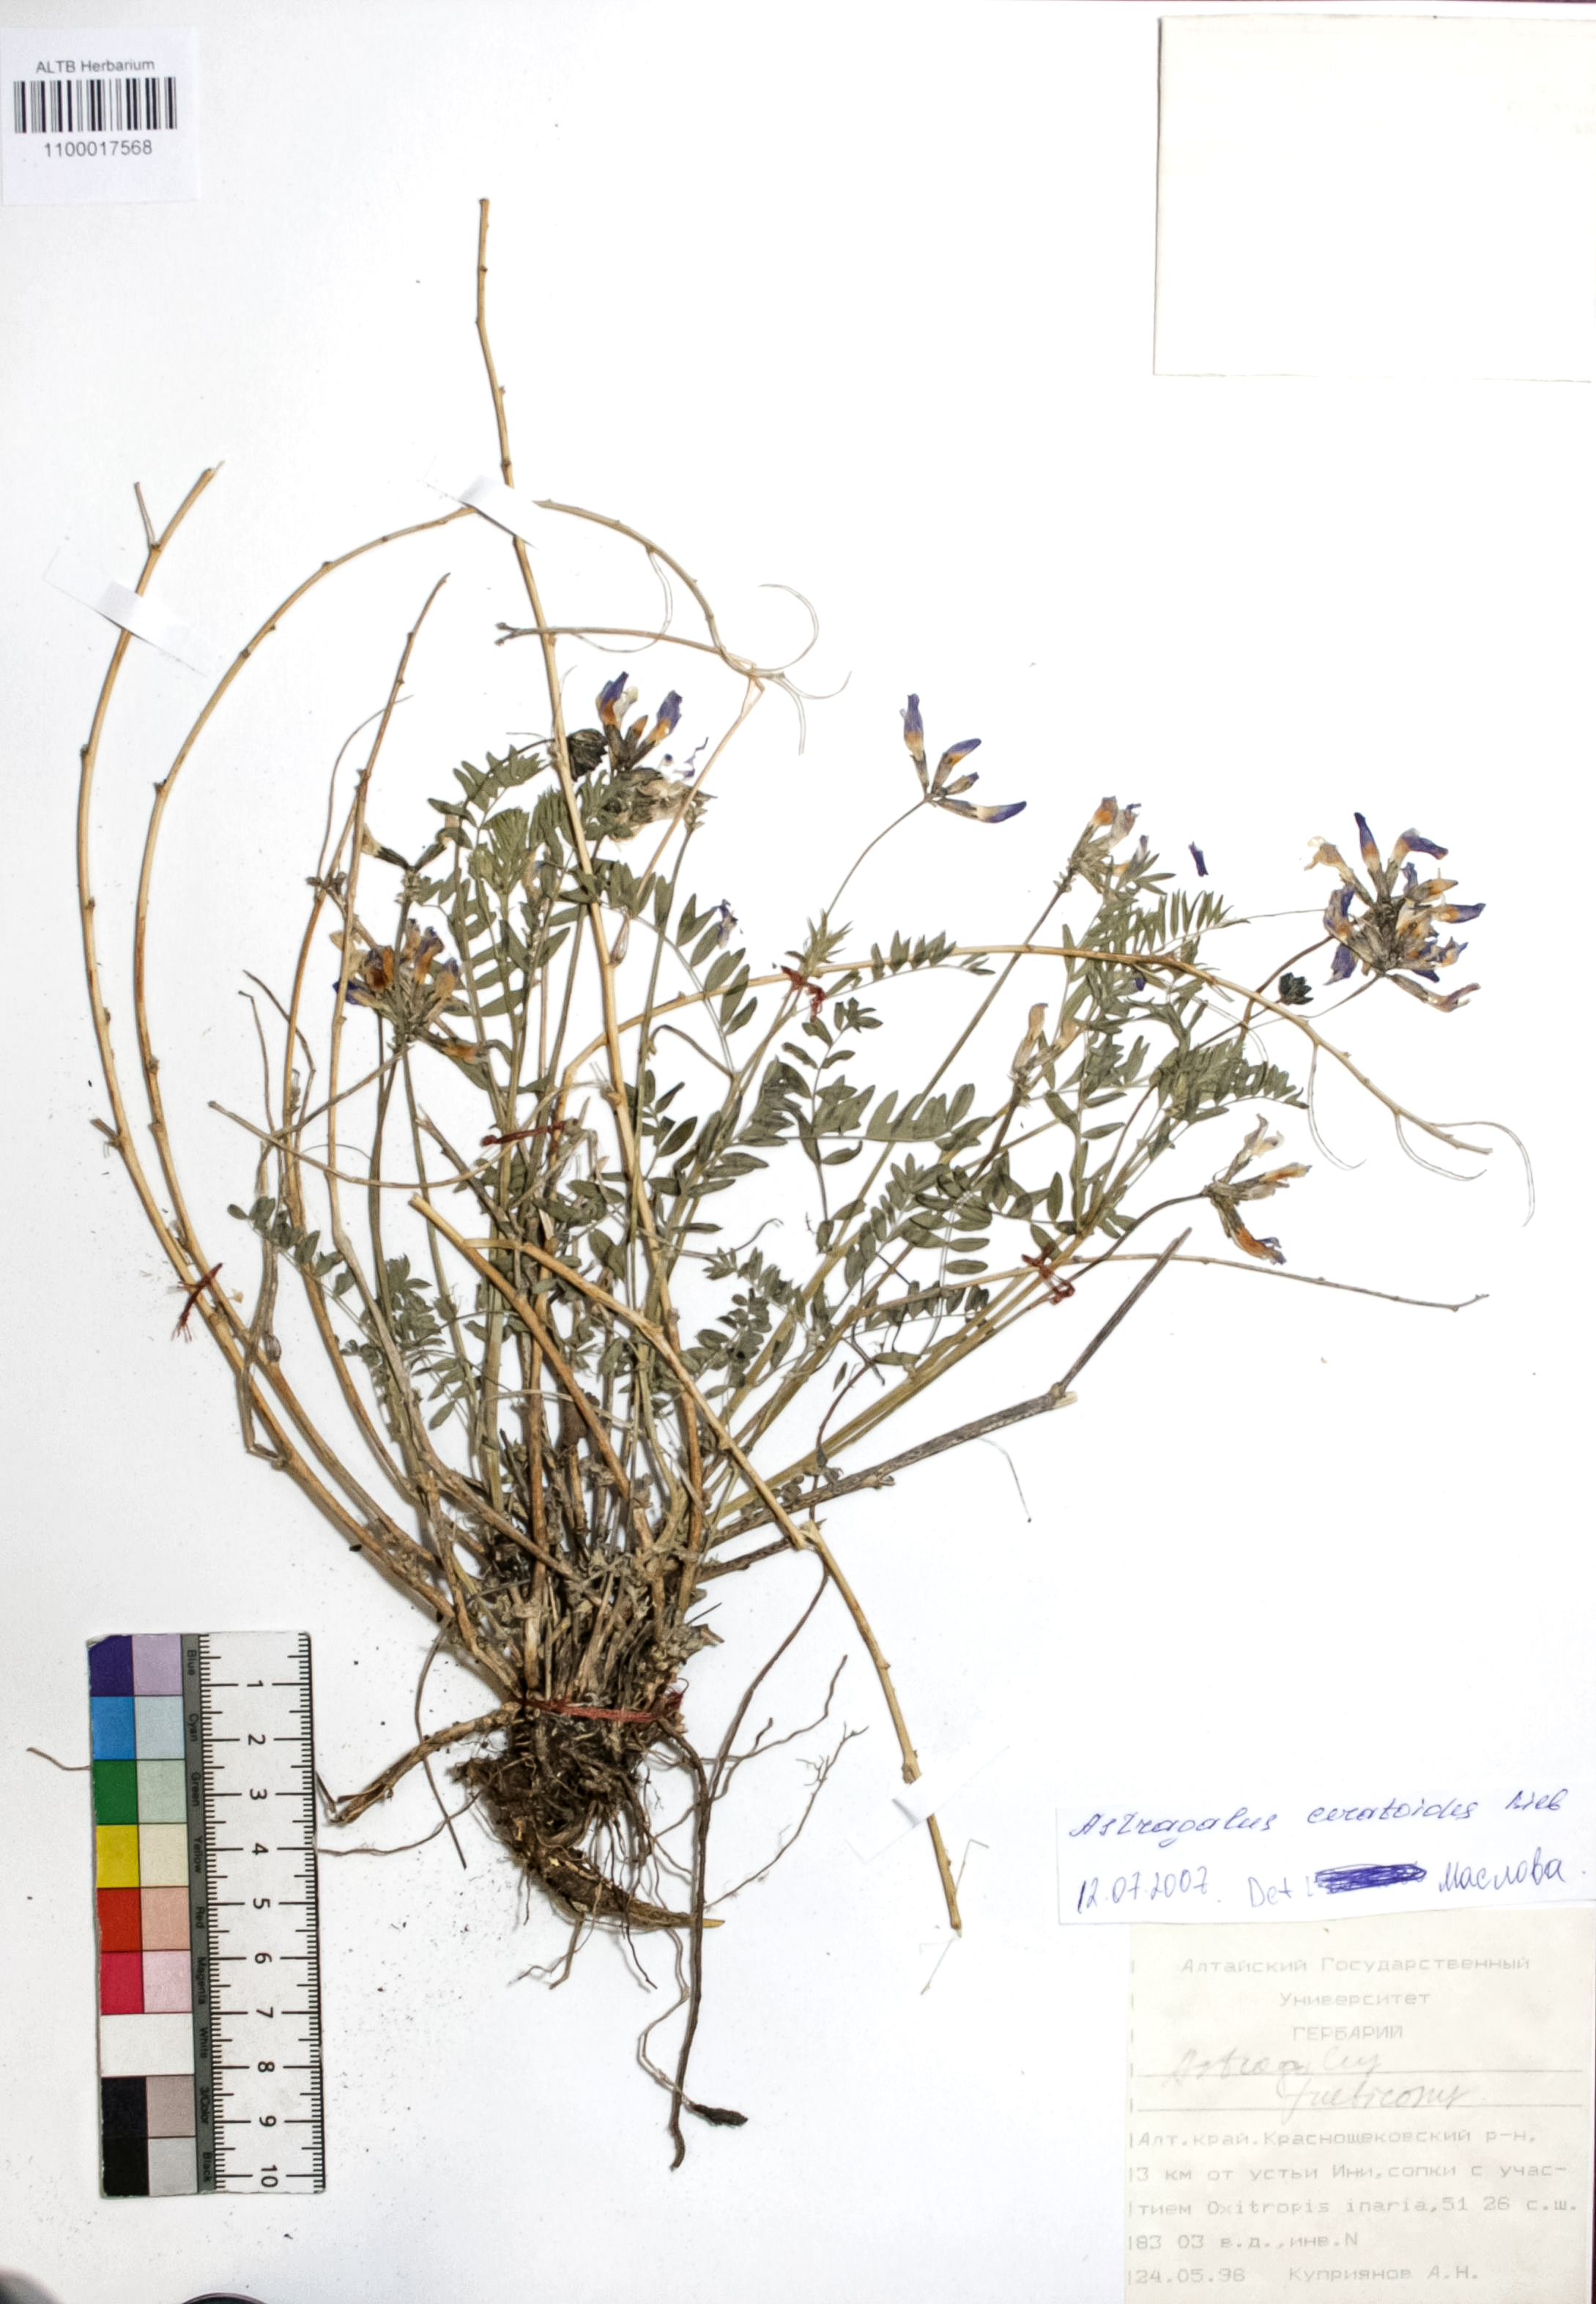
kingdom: Plantae
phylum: Tracheophyta
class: Magnoliopsida
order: Fabales
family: Fabaceae
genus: Astragalus
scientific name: Astragalus ceratoides
